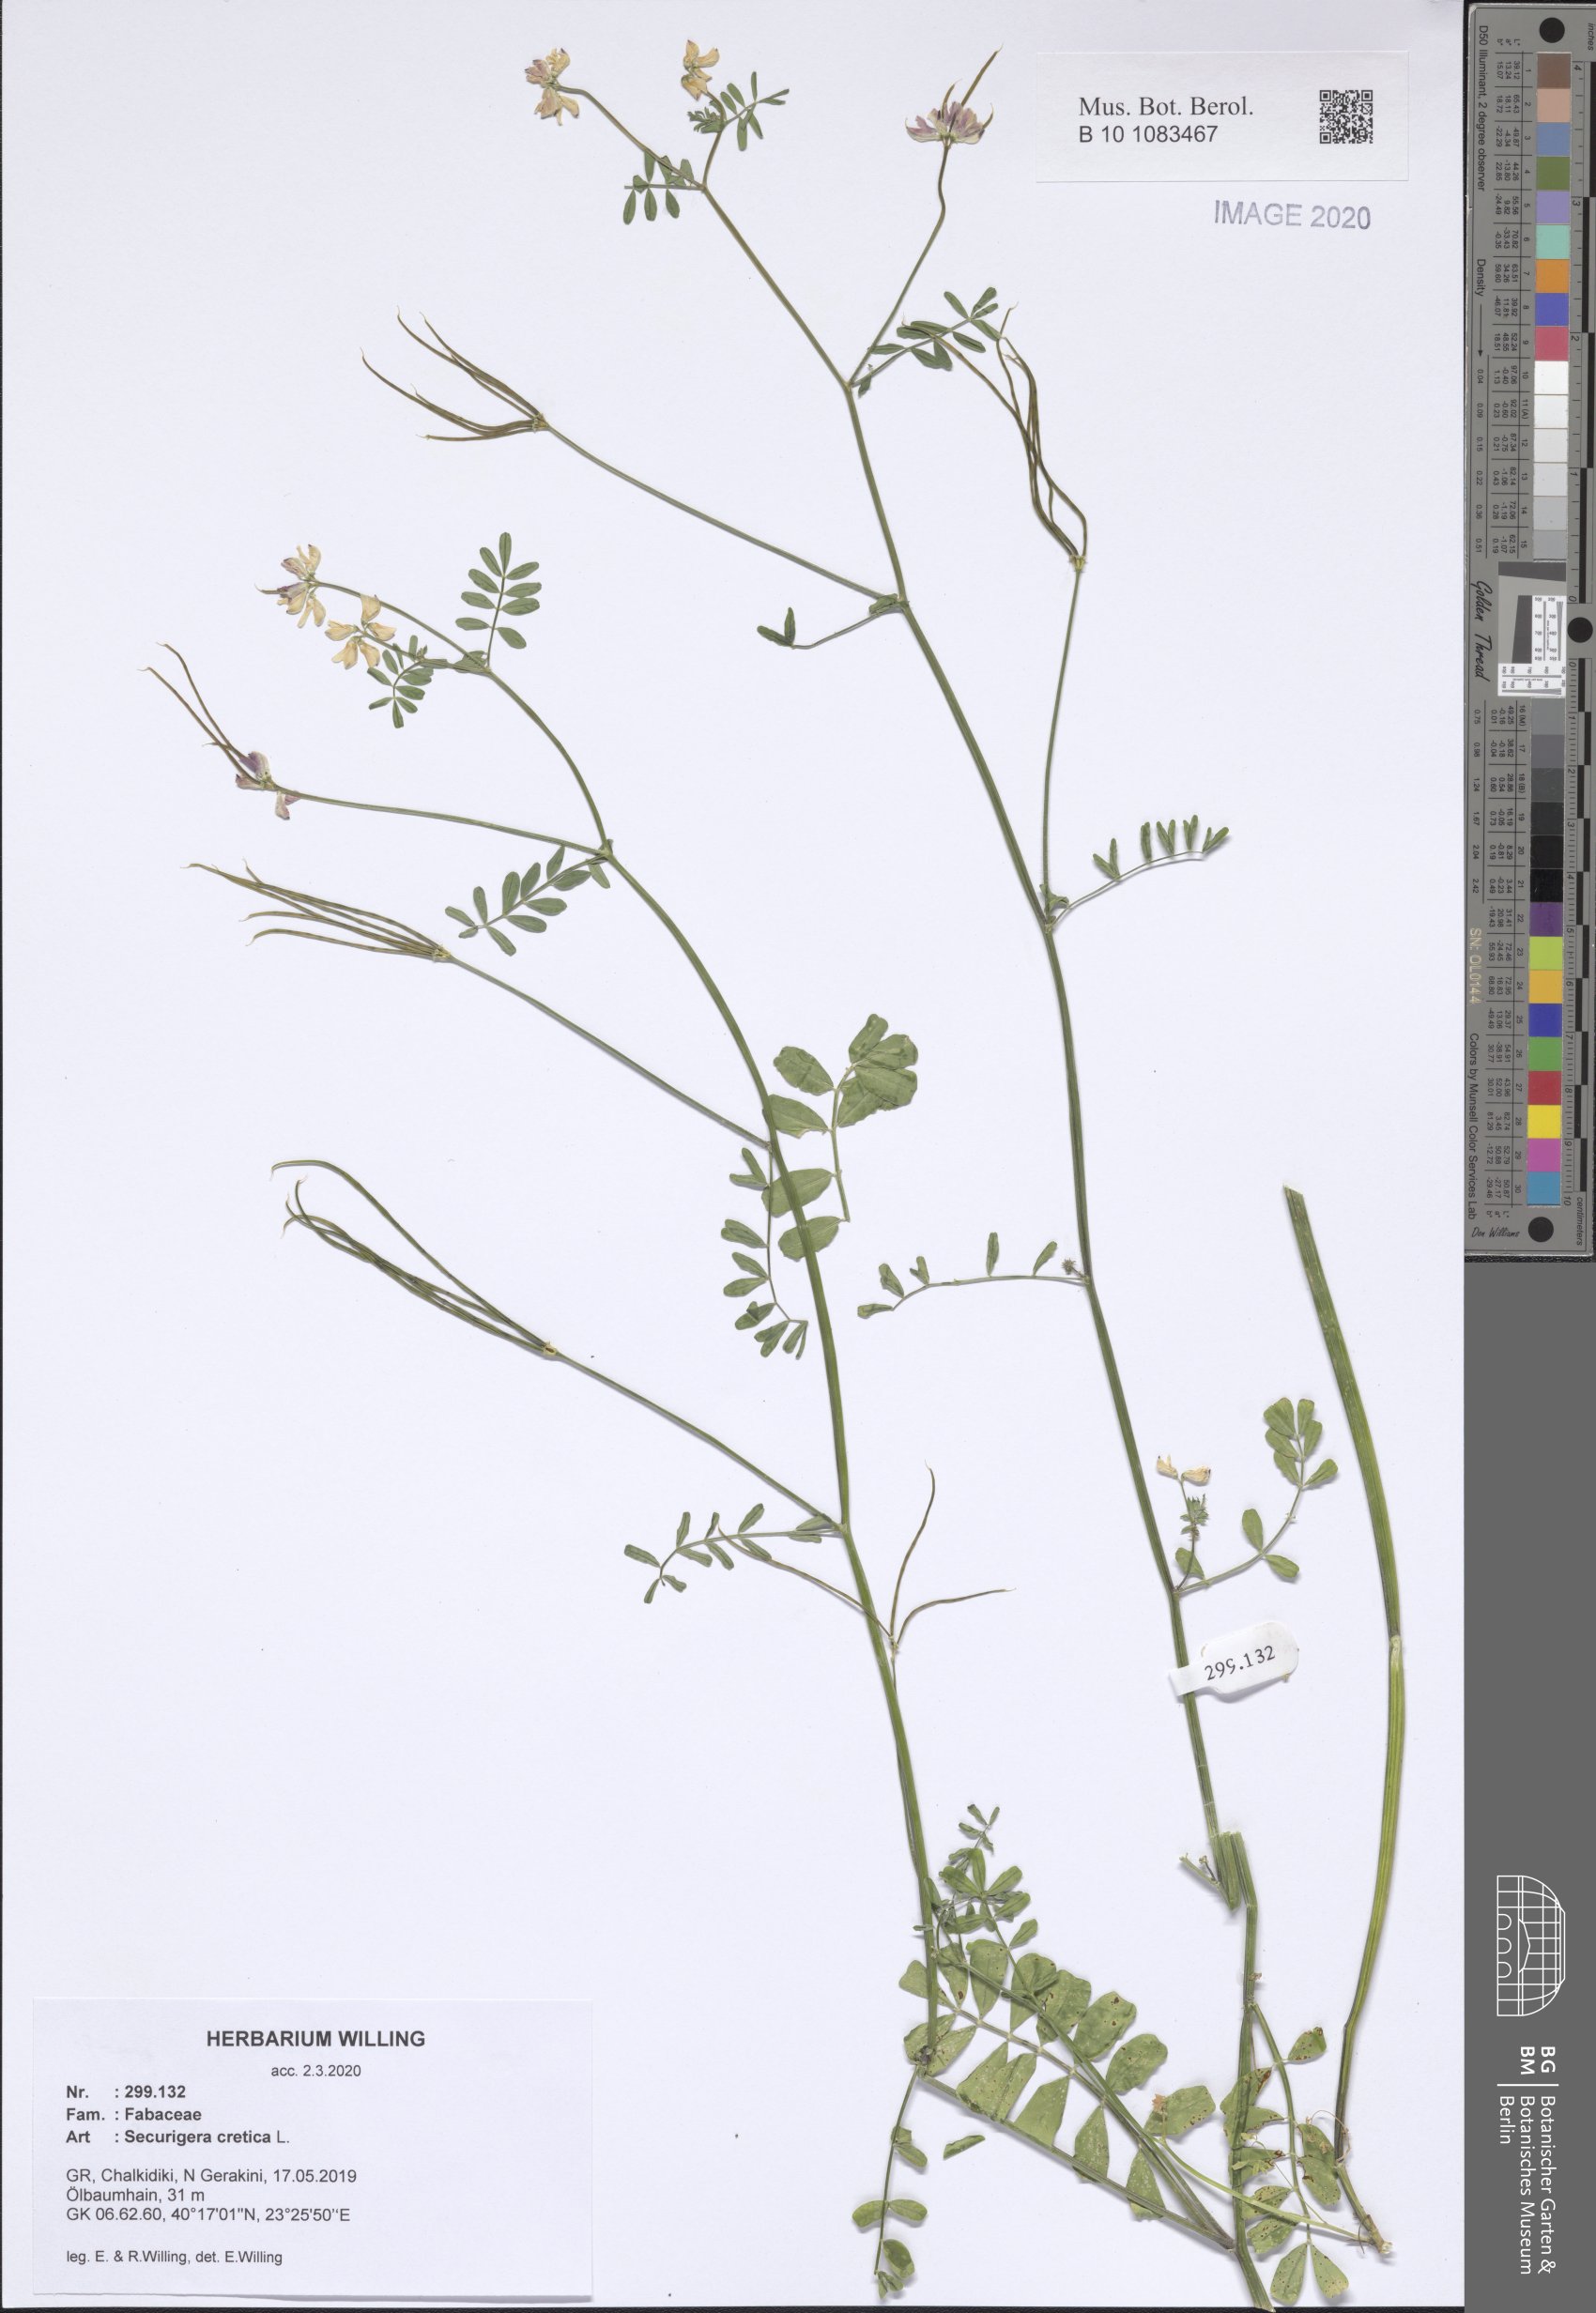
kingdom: Plantae
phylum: Tracheophyta
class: Magnoliopsida
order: Fabales
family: Fabaceae
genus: Coronilla
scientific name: Coronilla cretica
